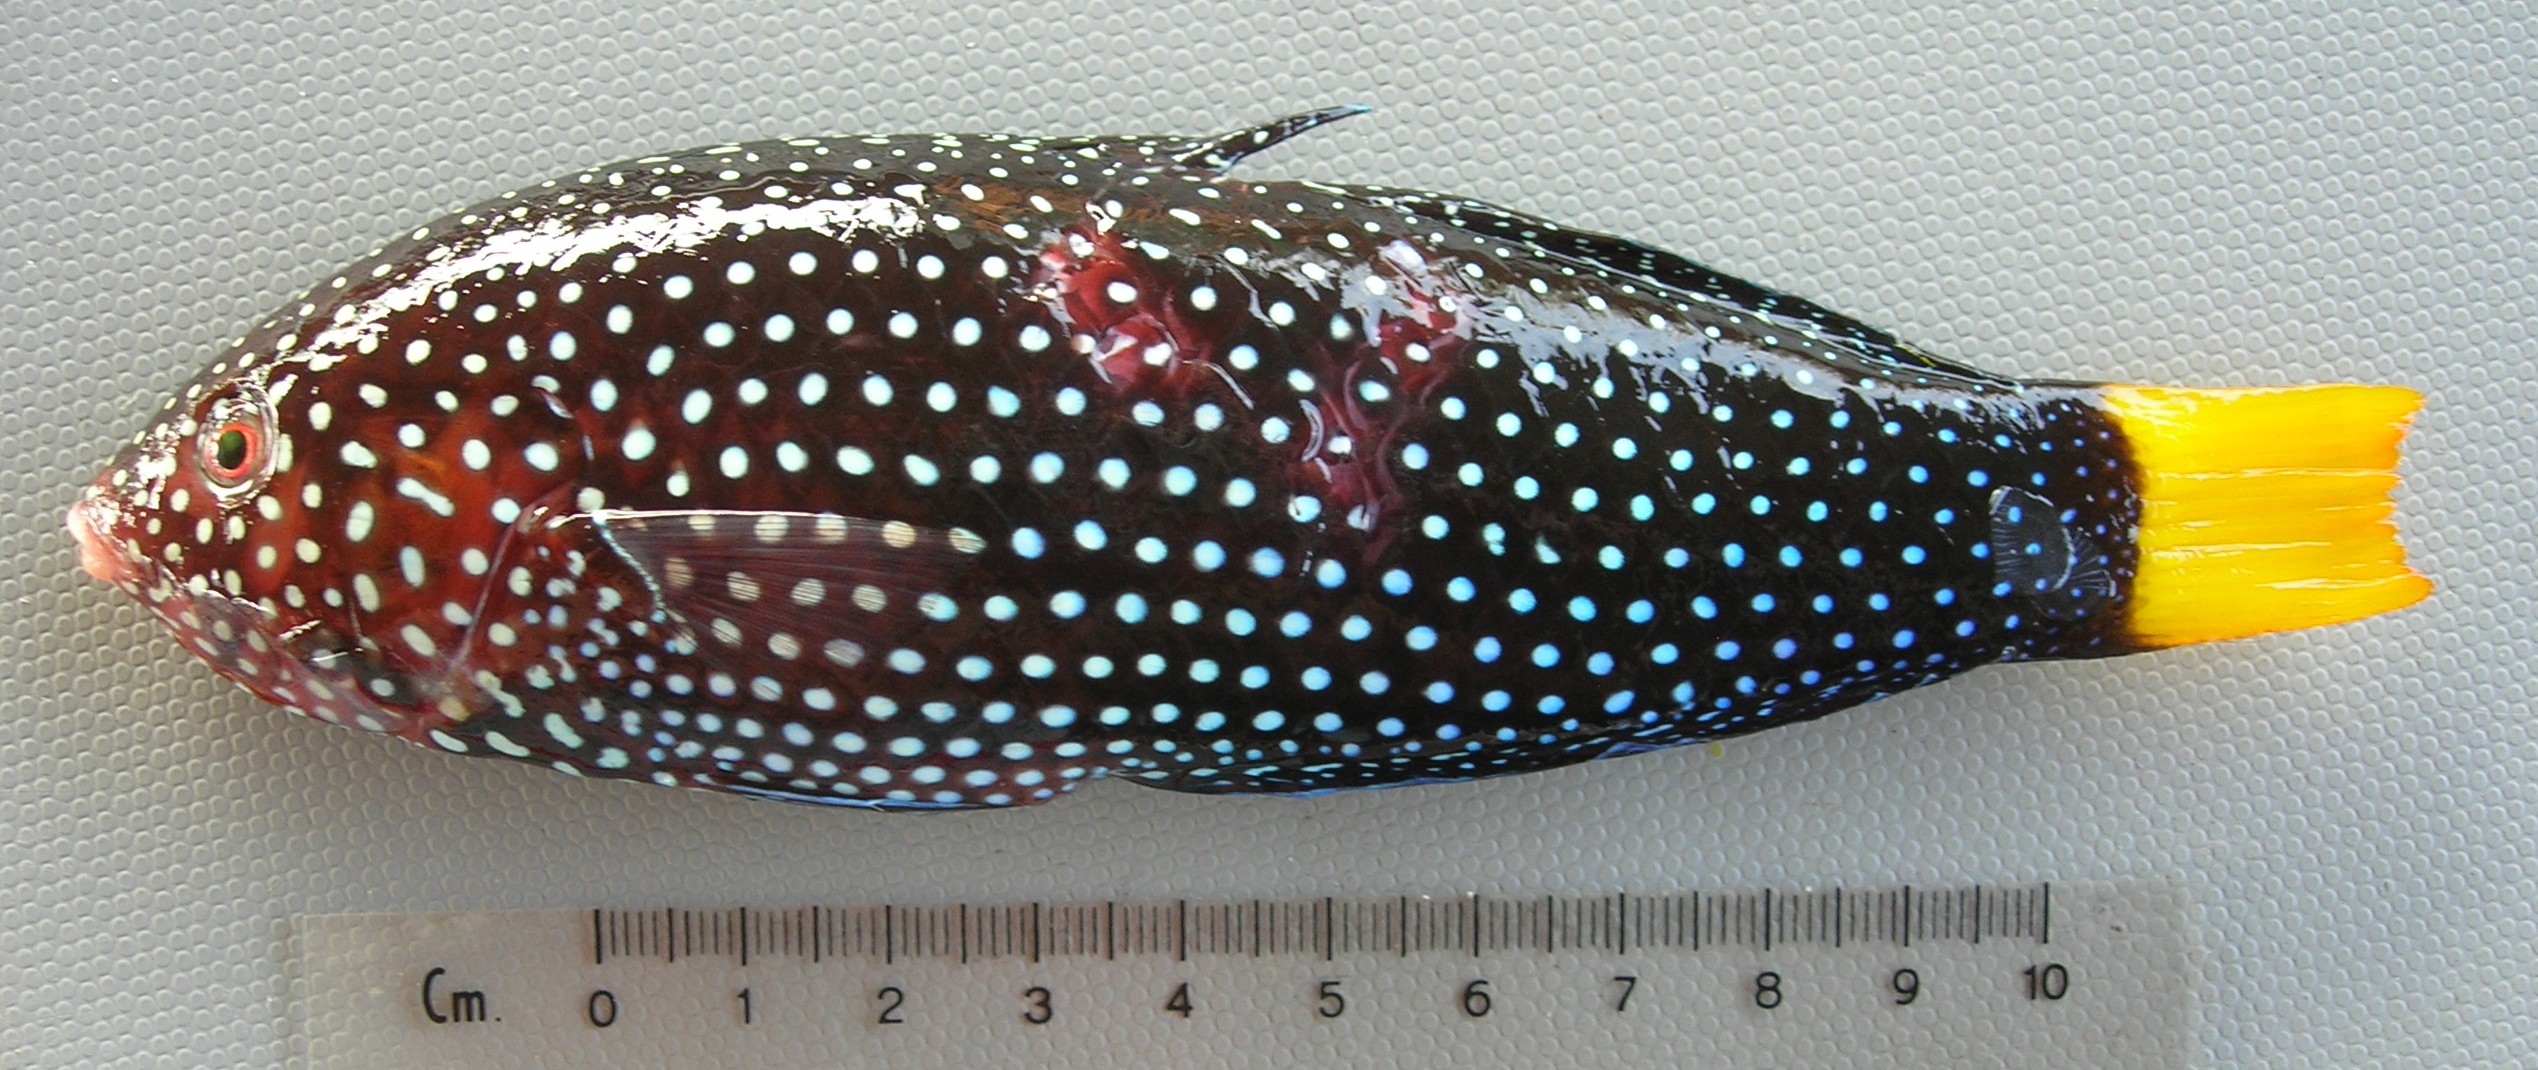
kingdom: Animalia
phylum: Chordata
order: Perciformes
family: Labridae
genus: Anampses
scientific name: Anampses meleagrides
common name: Yellowtail wrasse
